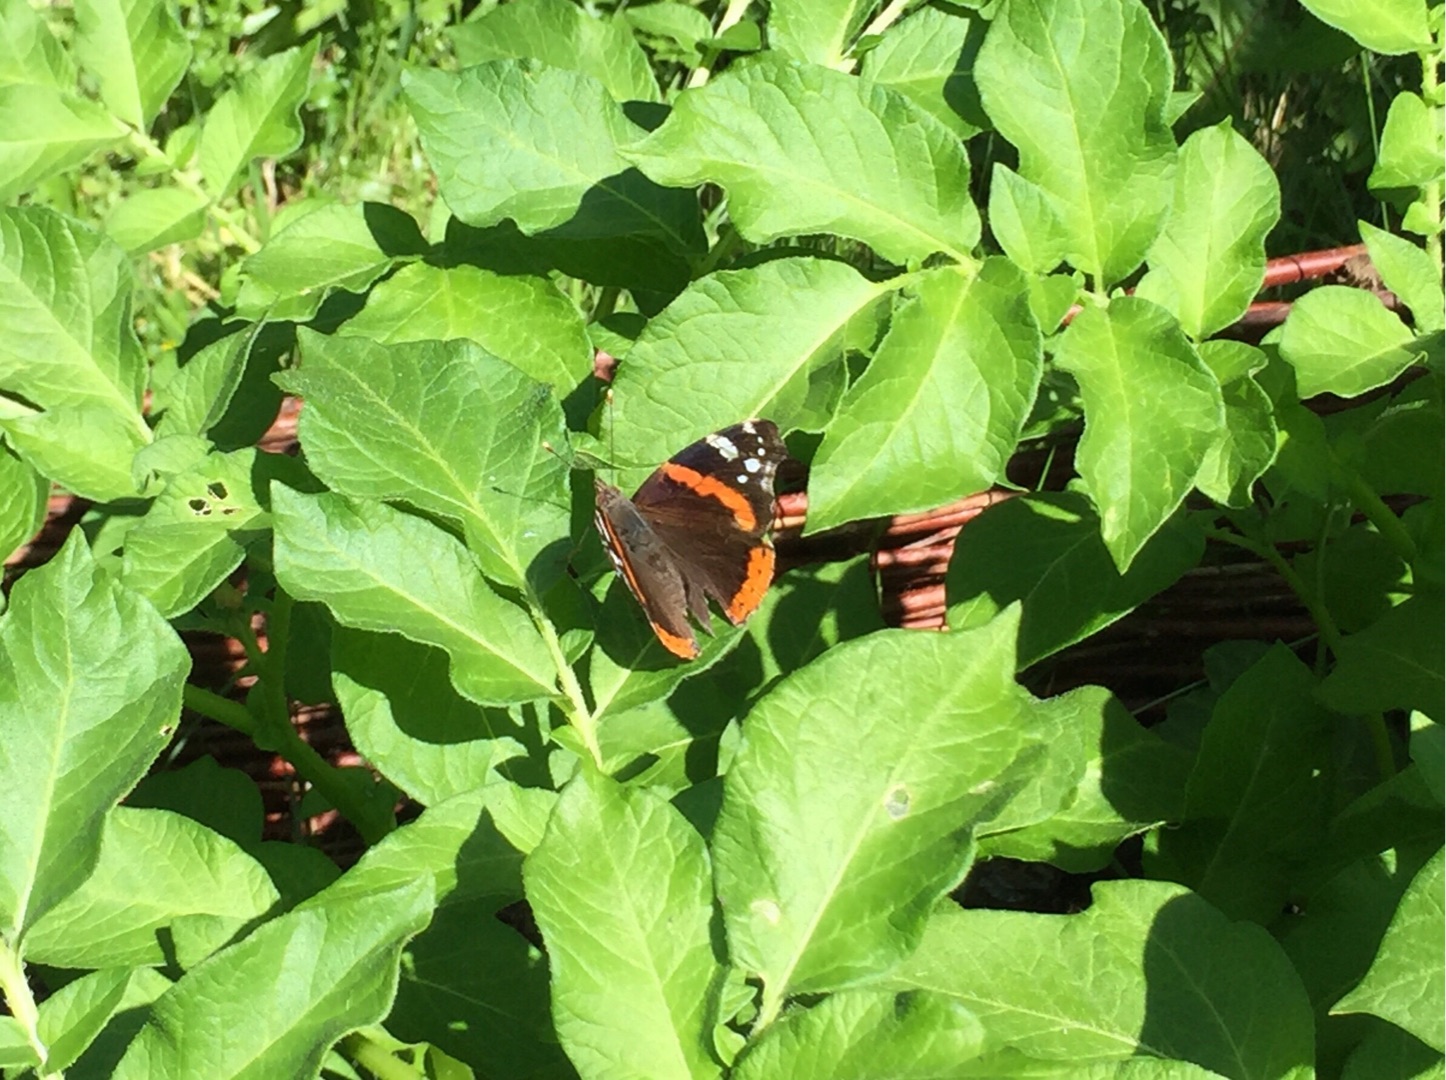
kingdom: Animalia
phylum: Arthropoda
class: Insecta
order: Lepidoptera
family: Nymphalidae
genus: Vanessa
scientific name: Vanessa atalanta
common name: Admiral
